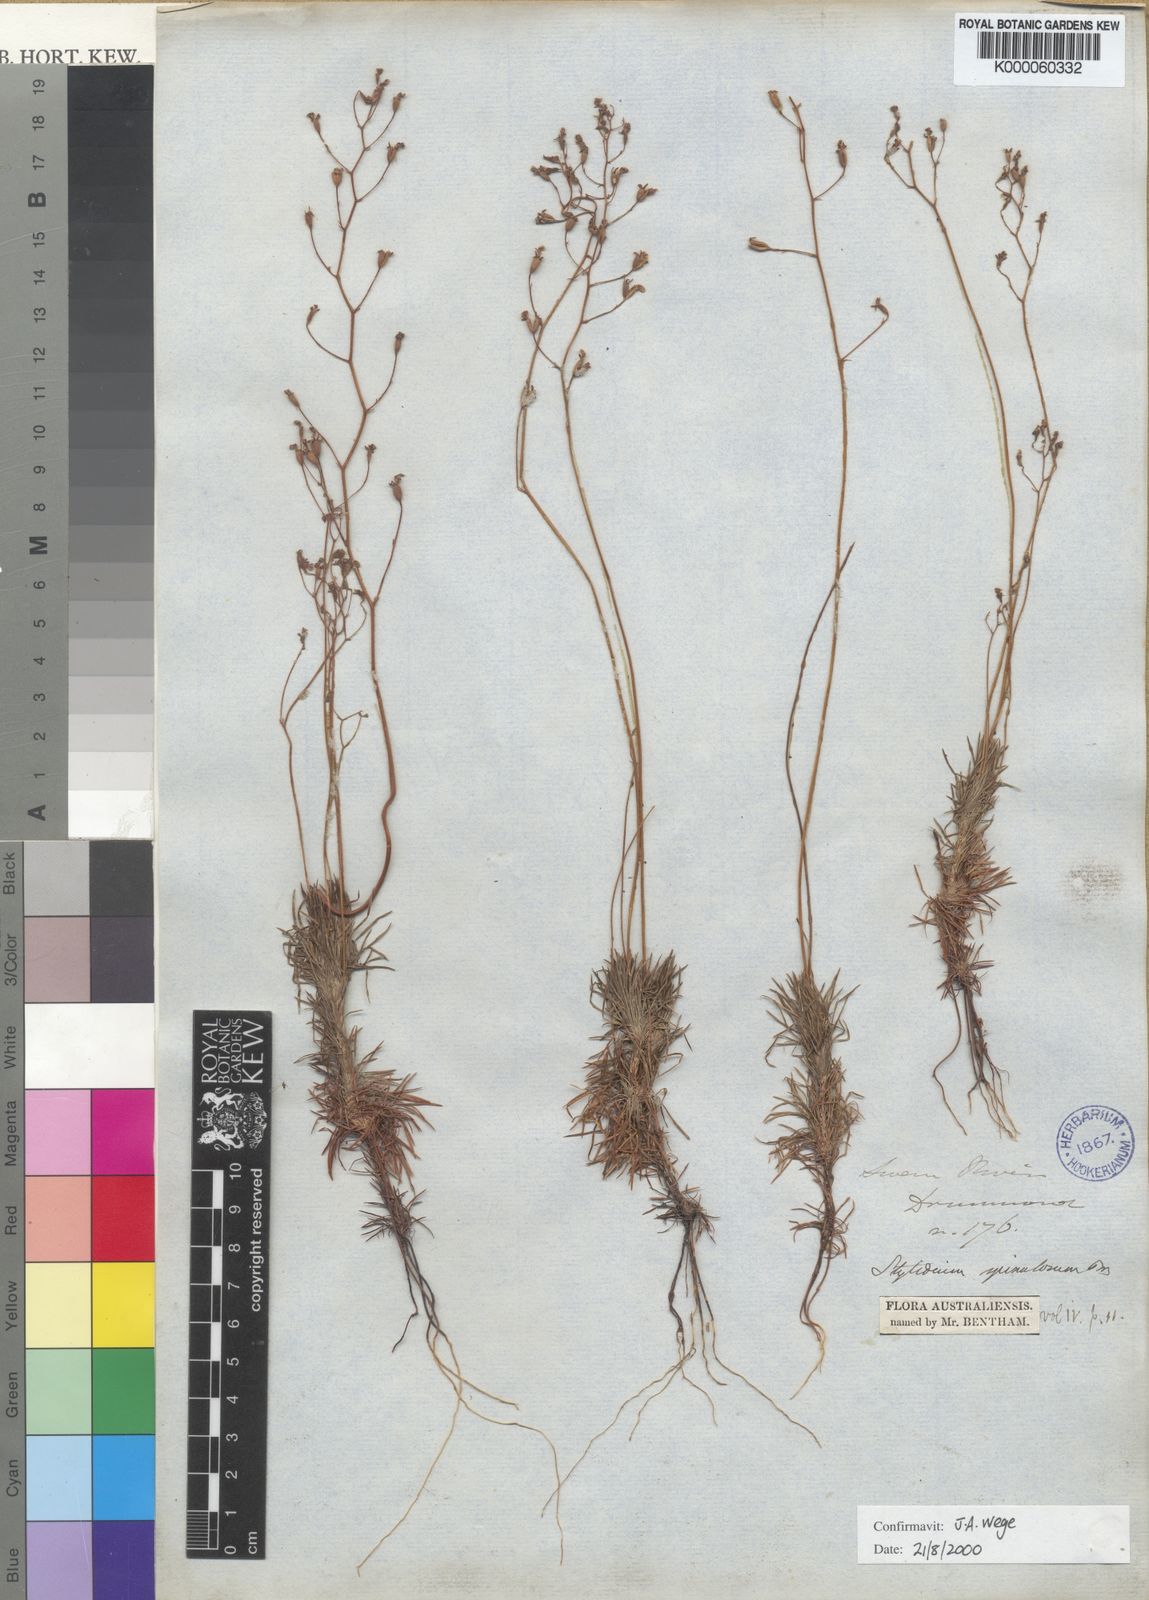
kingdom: Plantae
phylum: Tracheophyta
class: Magnoliopsida
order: Asterales
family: Stylidiaceae
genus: Stylidium
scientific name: Stylidium spinulosum
